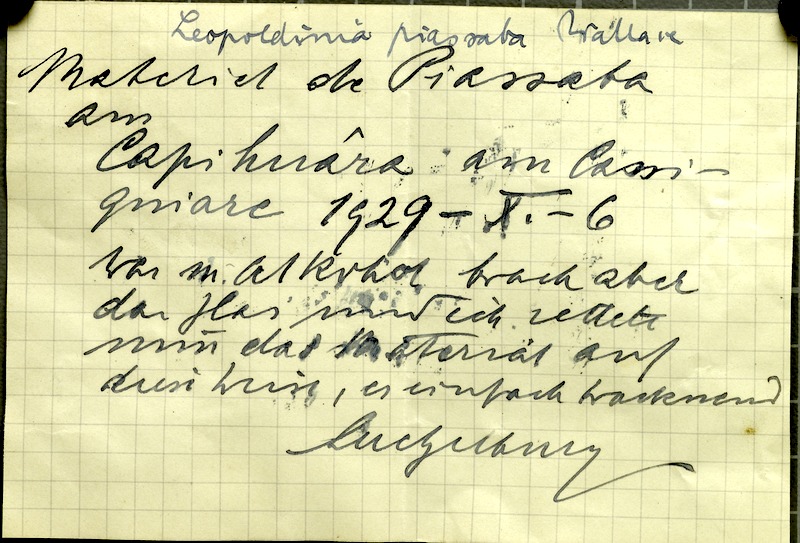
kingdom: Plantae
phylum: Tracheophyta
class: Liliopsida
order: Arecales
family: Arecaceae
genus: Leopoldinia
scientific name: Leopoldinia piassaba
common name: Piassaba
